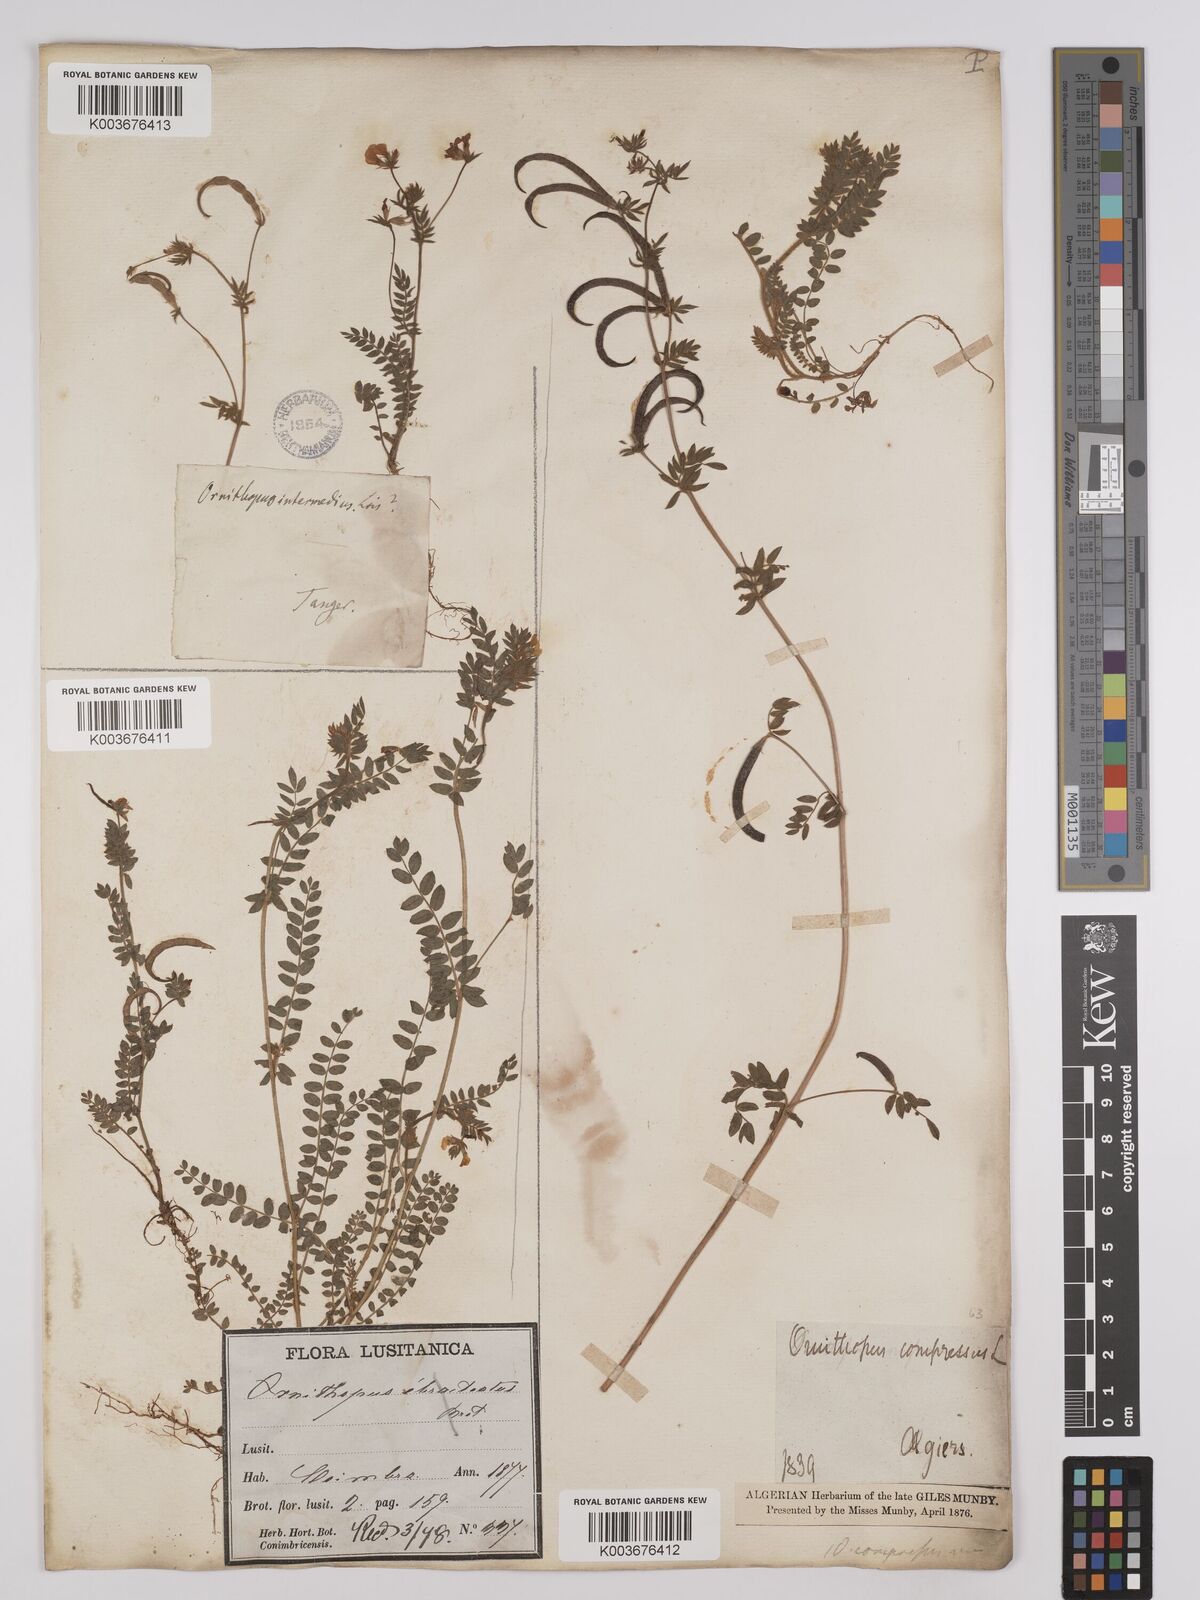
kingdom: Plantae
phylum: Tracheophyta
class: Magnoliopsida
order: Fabales
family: Fabaceae
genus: Ornithopus
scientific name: Ornithopus compressus
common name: Yellow serradella
